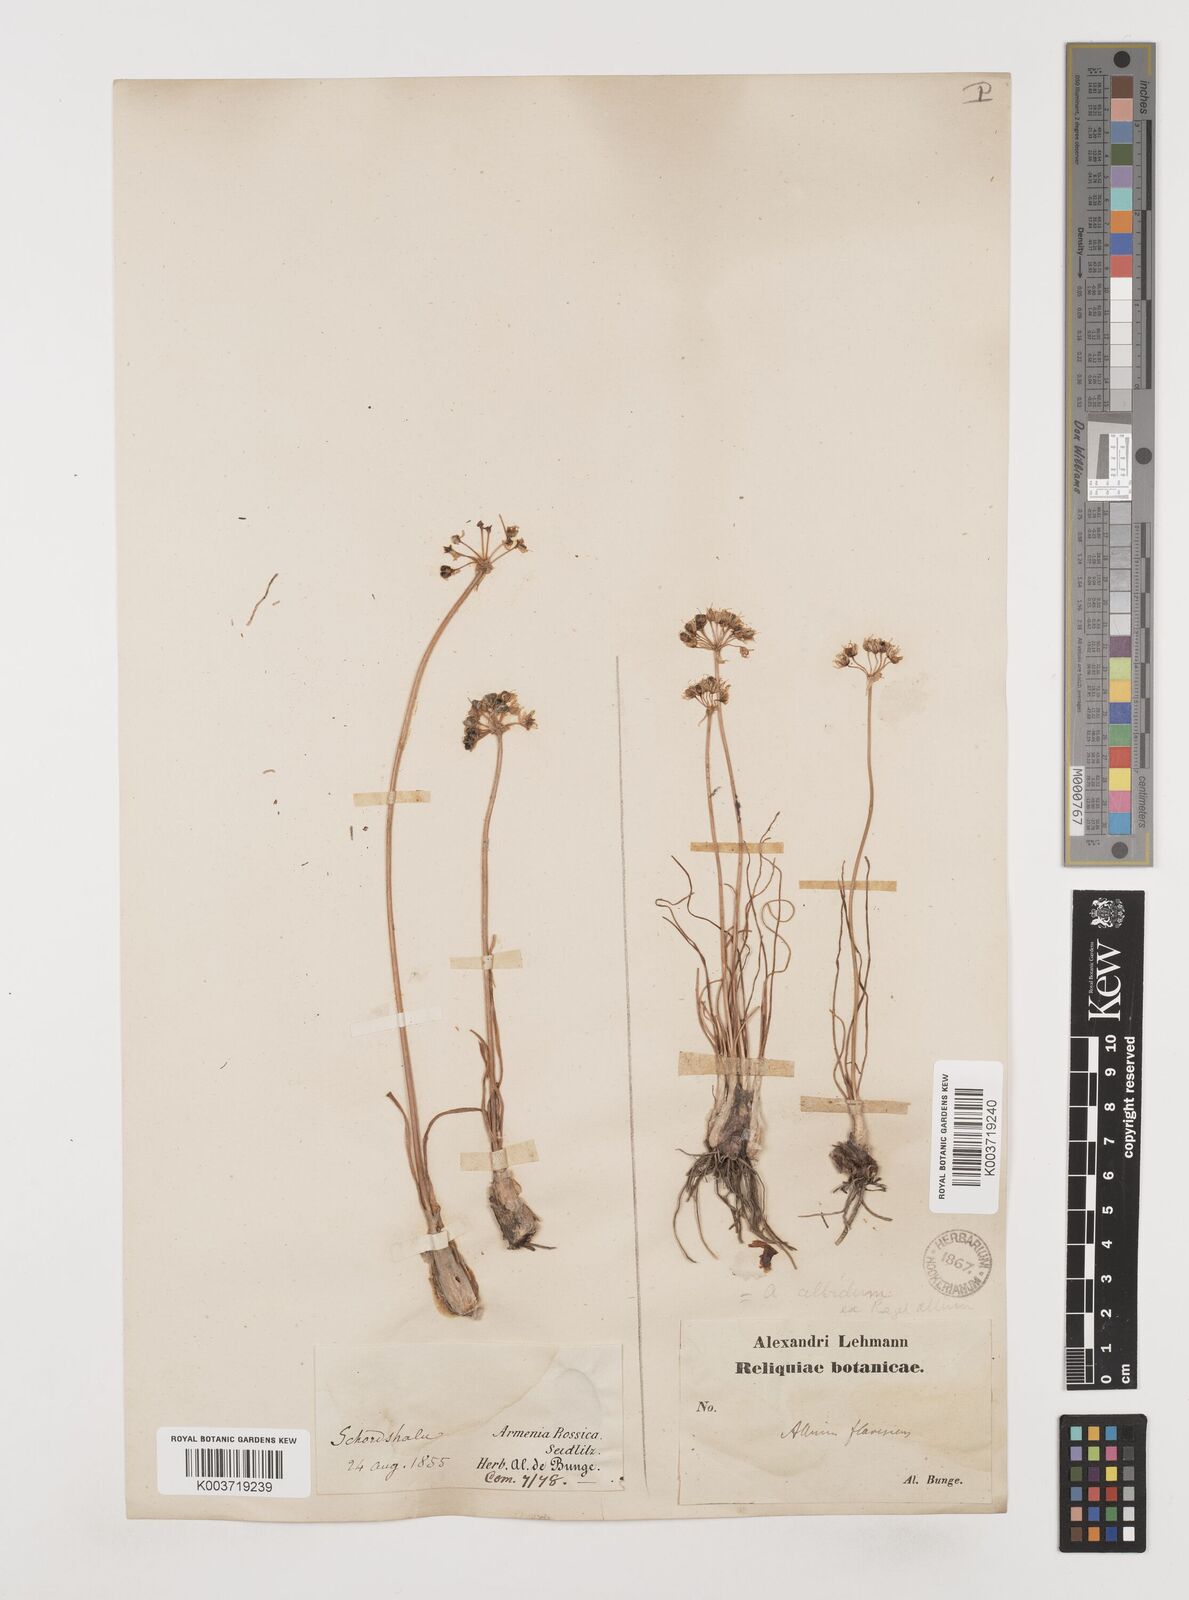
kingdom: Plantae
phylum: Tracheophyta
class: Liliopsida
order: Asparagales
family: Amaryllidaceae
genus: Allium
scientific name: Allium denudatum
